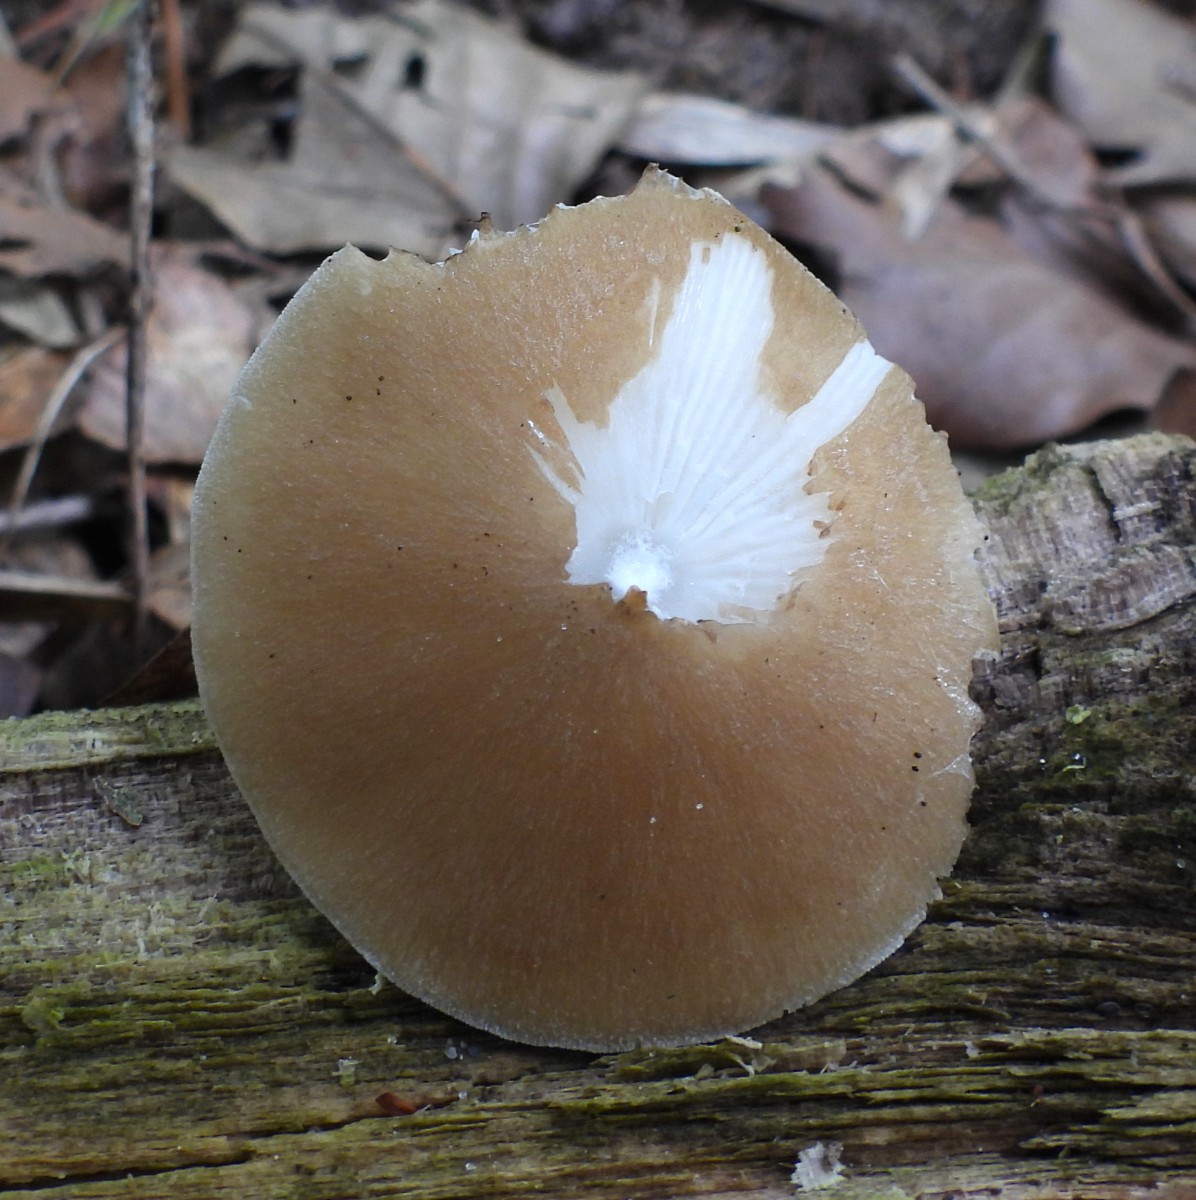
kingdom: Fungi
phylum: Basidiomycota
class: Agaricomycetes
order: Agaricales
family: Porotheleaceae
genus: Hydropodia
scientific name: Hydropodia subalpina
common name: vår-fnugfod
